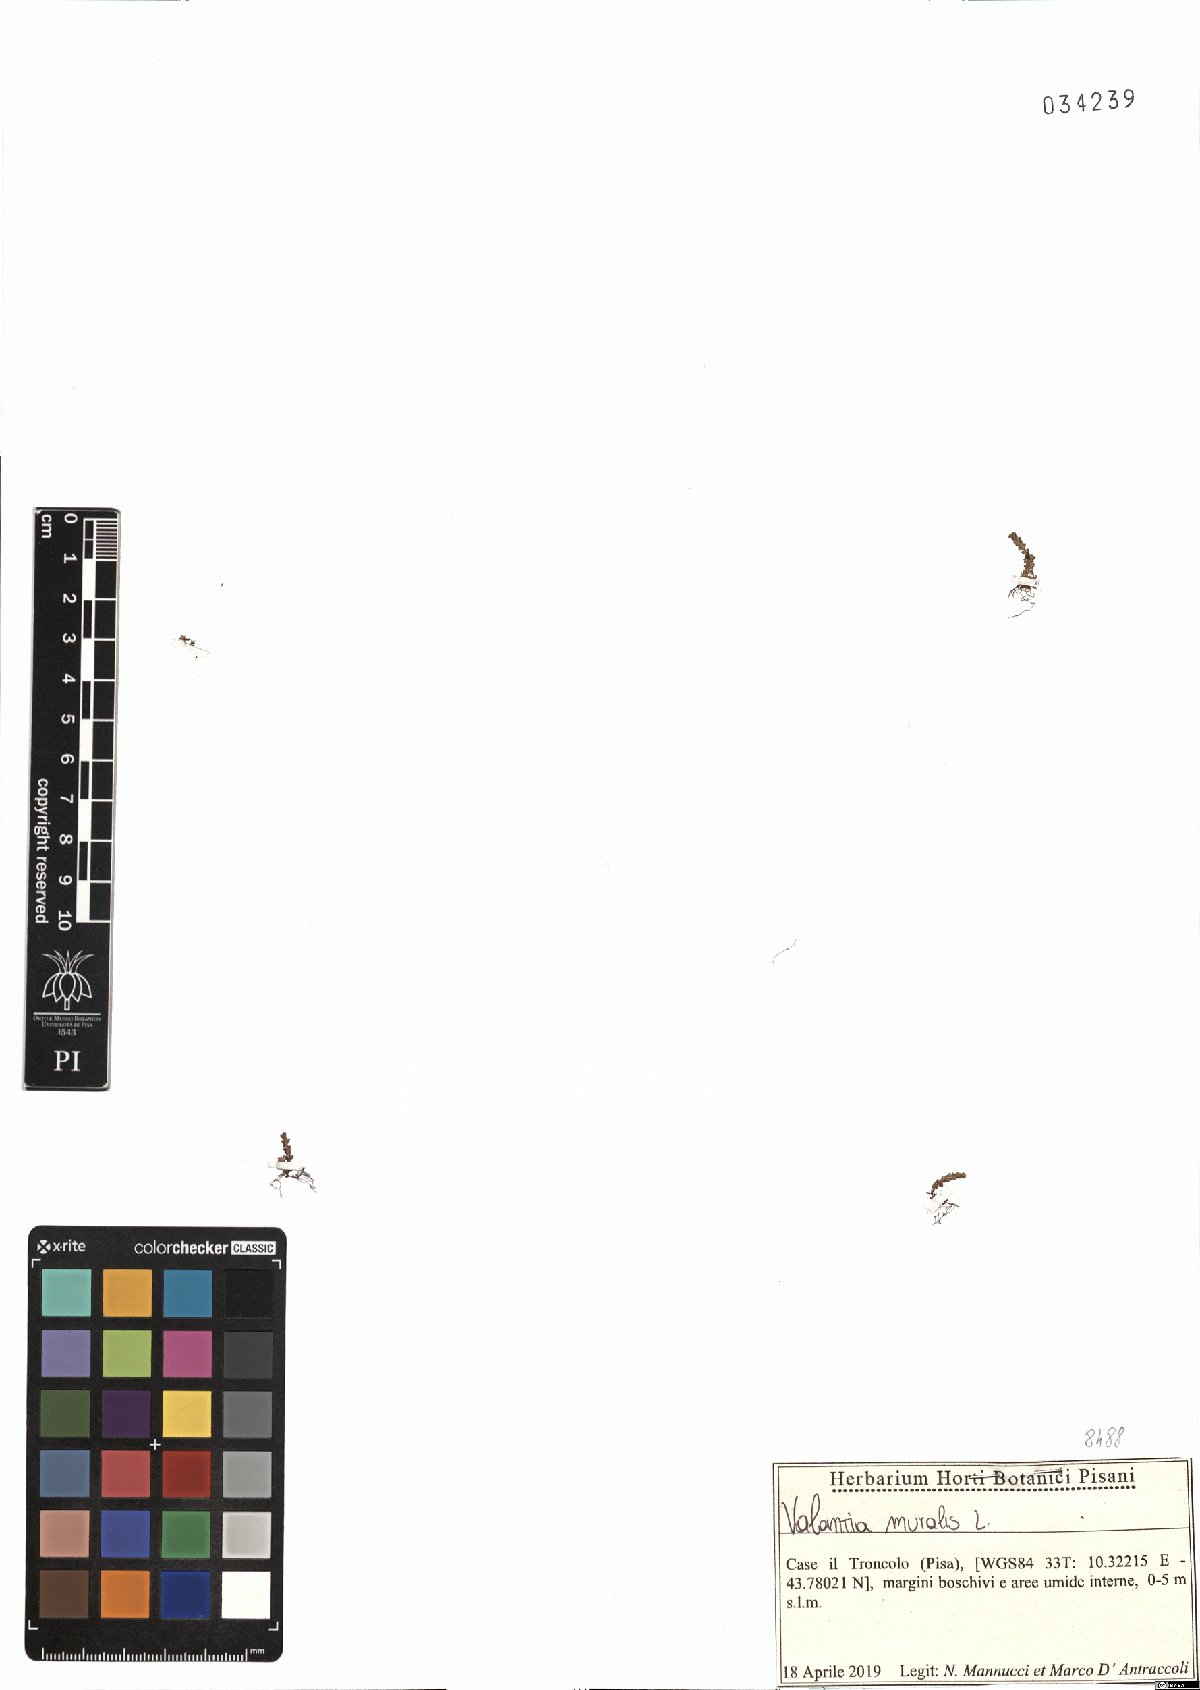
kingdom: Plantae
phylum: Tracheophyta
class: Magnoliopsida
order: Gentianales
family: Rubiaceae
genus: Valantia
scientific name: Valantia muralis
